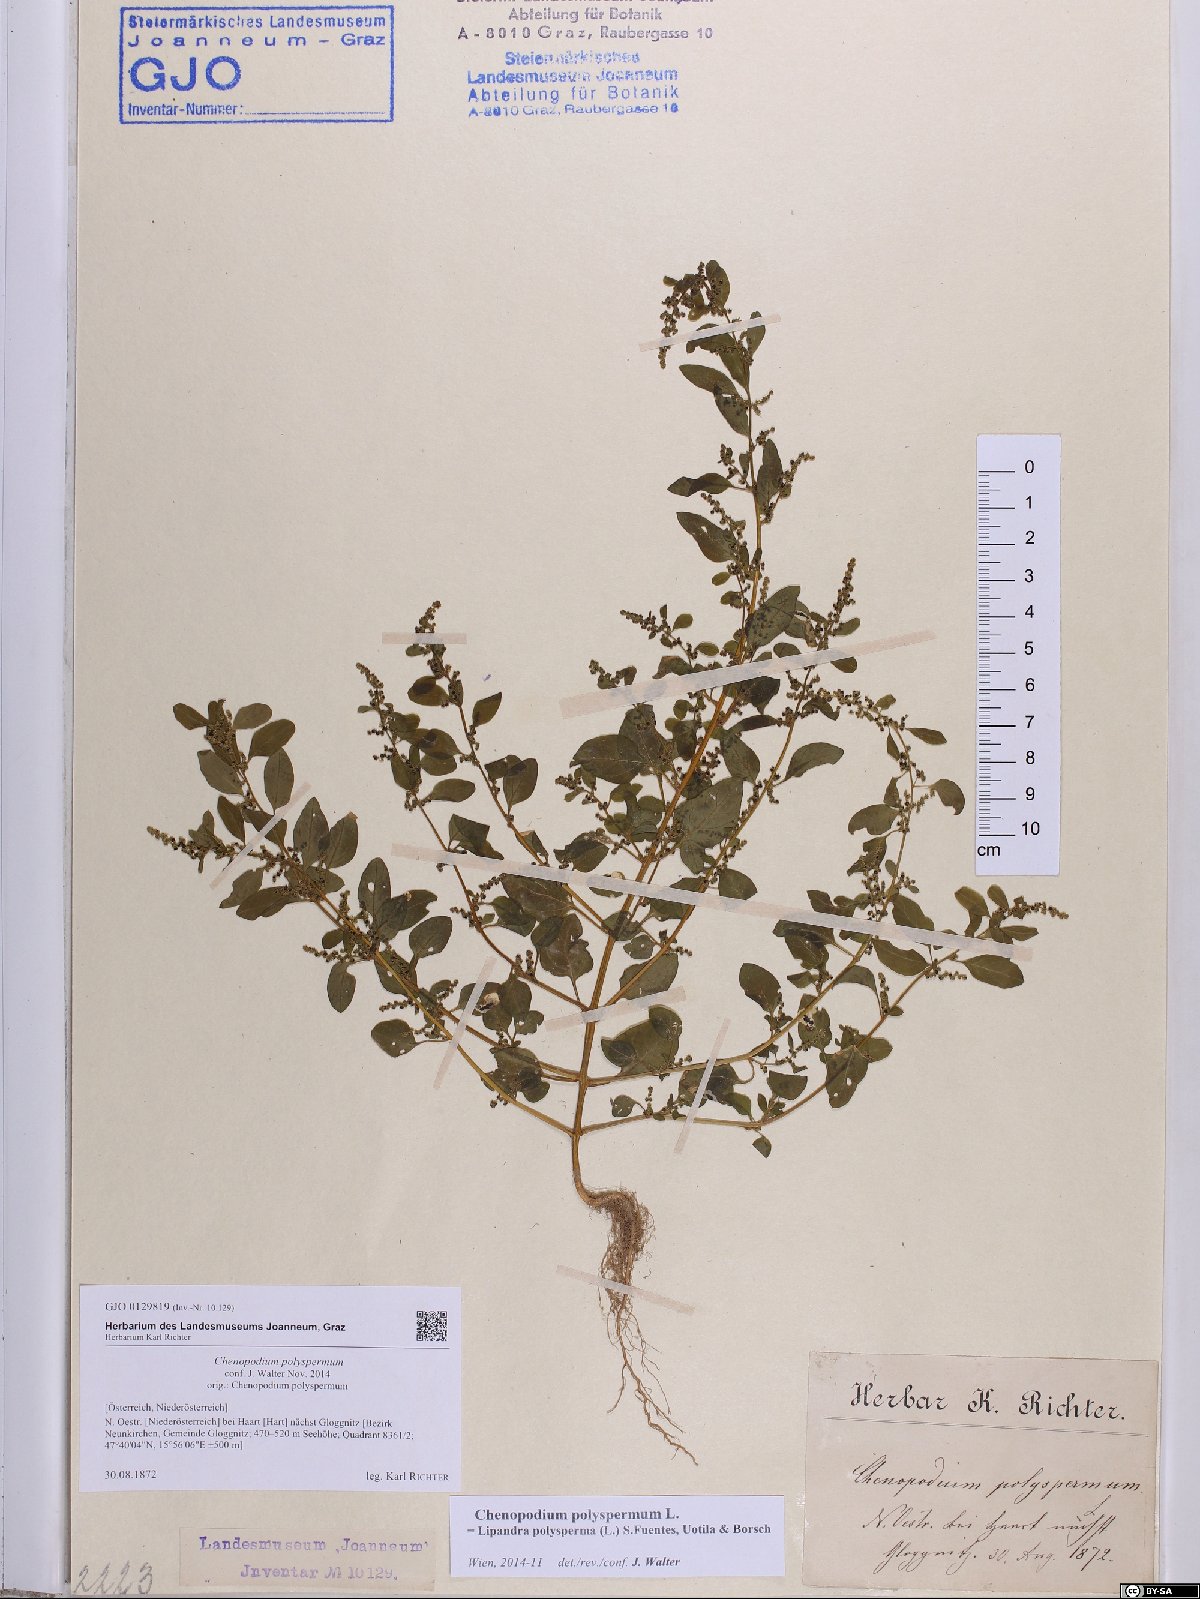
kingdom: Plantae
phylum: Tracheophyta
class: Magnoliopsida
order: Caryophyllales
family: Amaranthaceae
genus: Lipandra
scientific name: Lipandra polysperma
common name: Many-seed goosefoot
